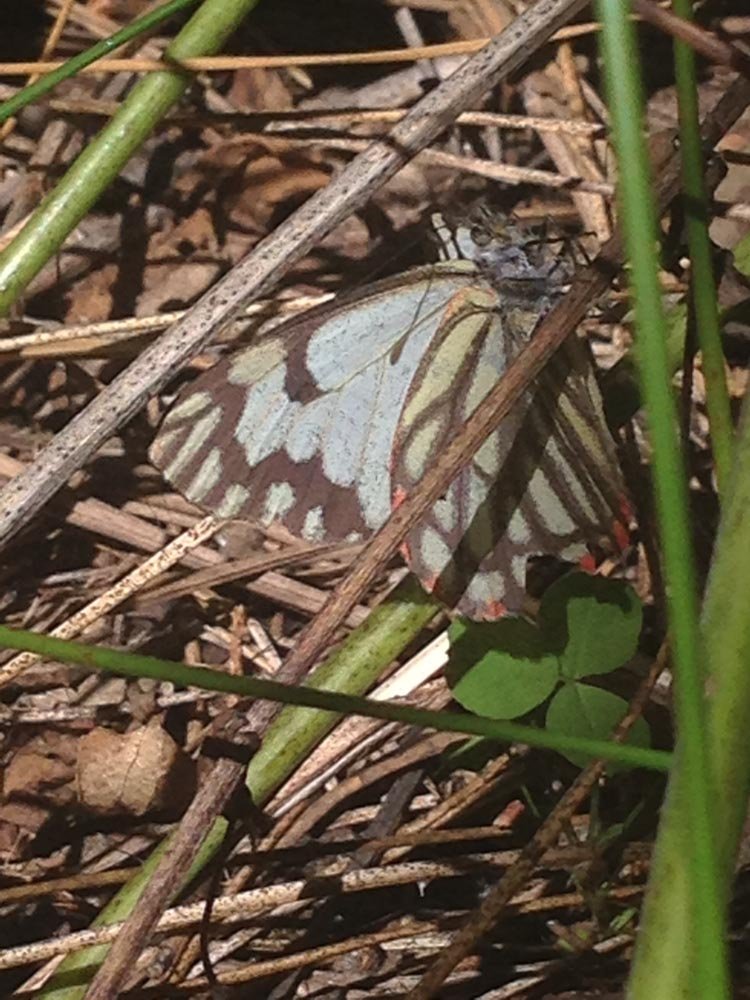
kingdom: Animalia
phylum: Arthropoda
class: Insecta
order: Lepidoptera
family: Pieridae
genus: Neophasia
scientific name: Neophasia menapia
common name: Pine White
